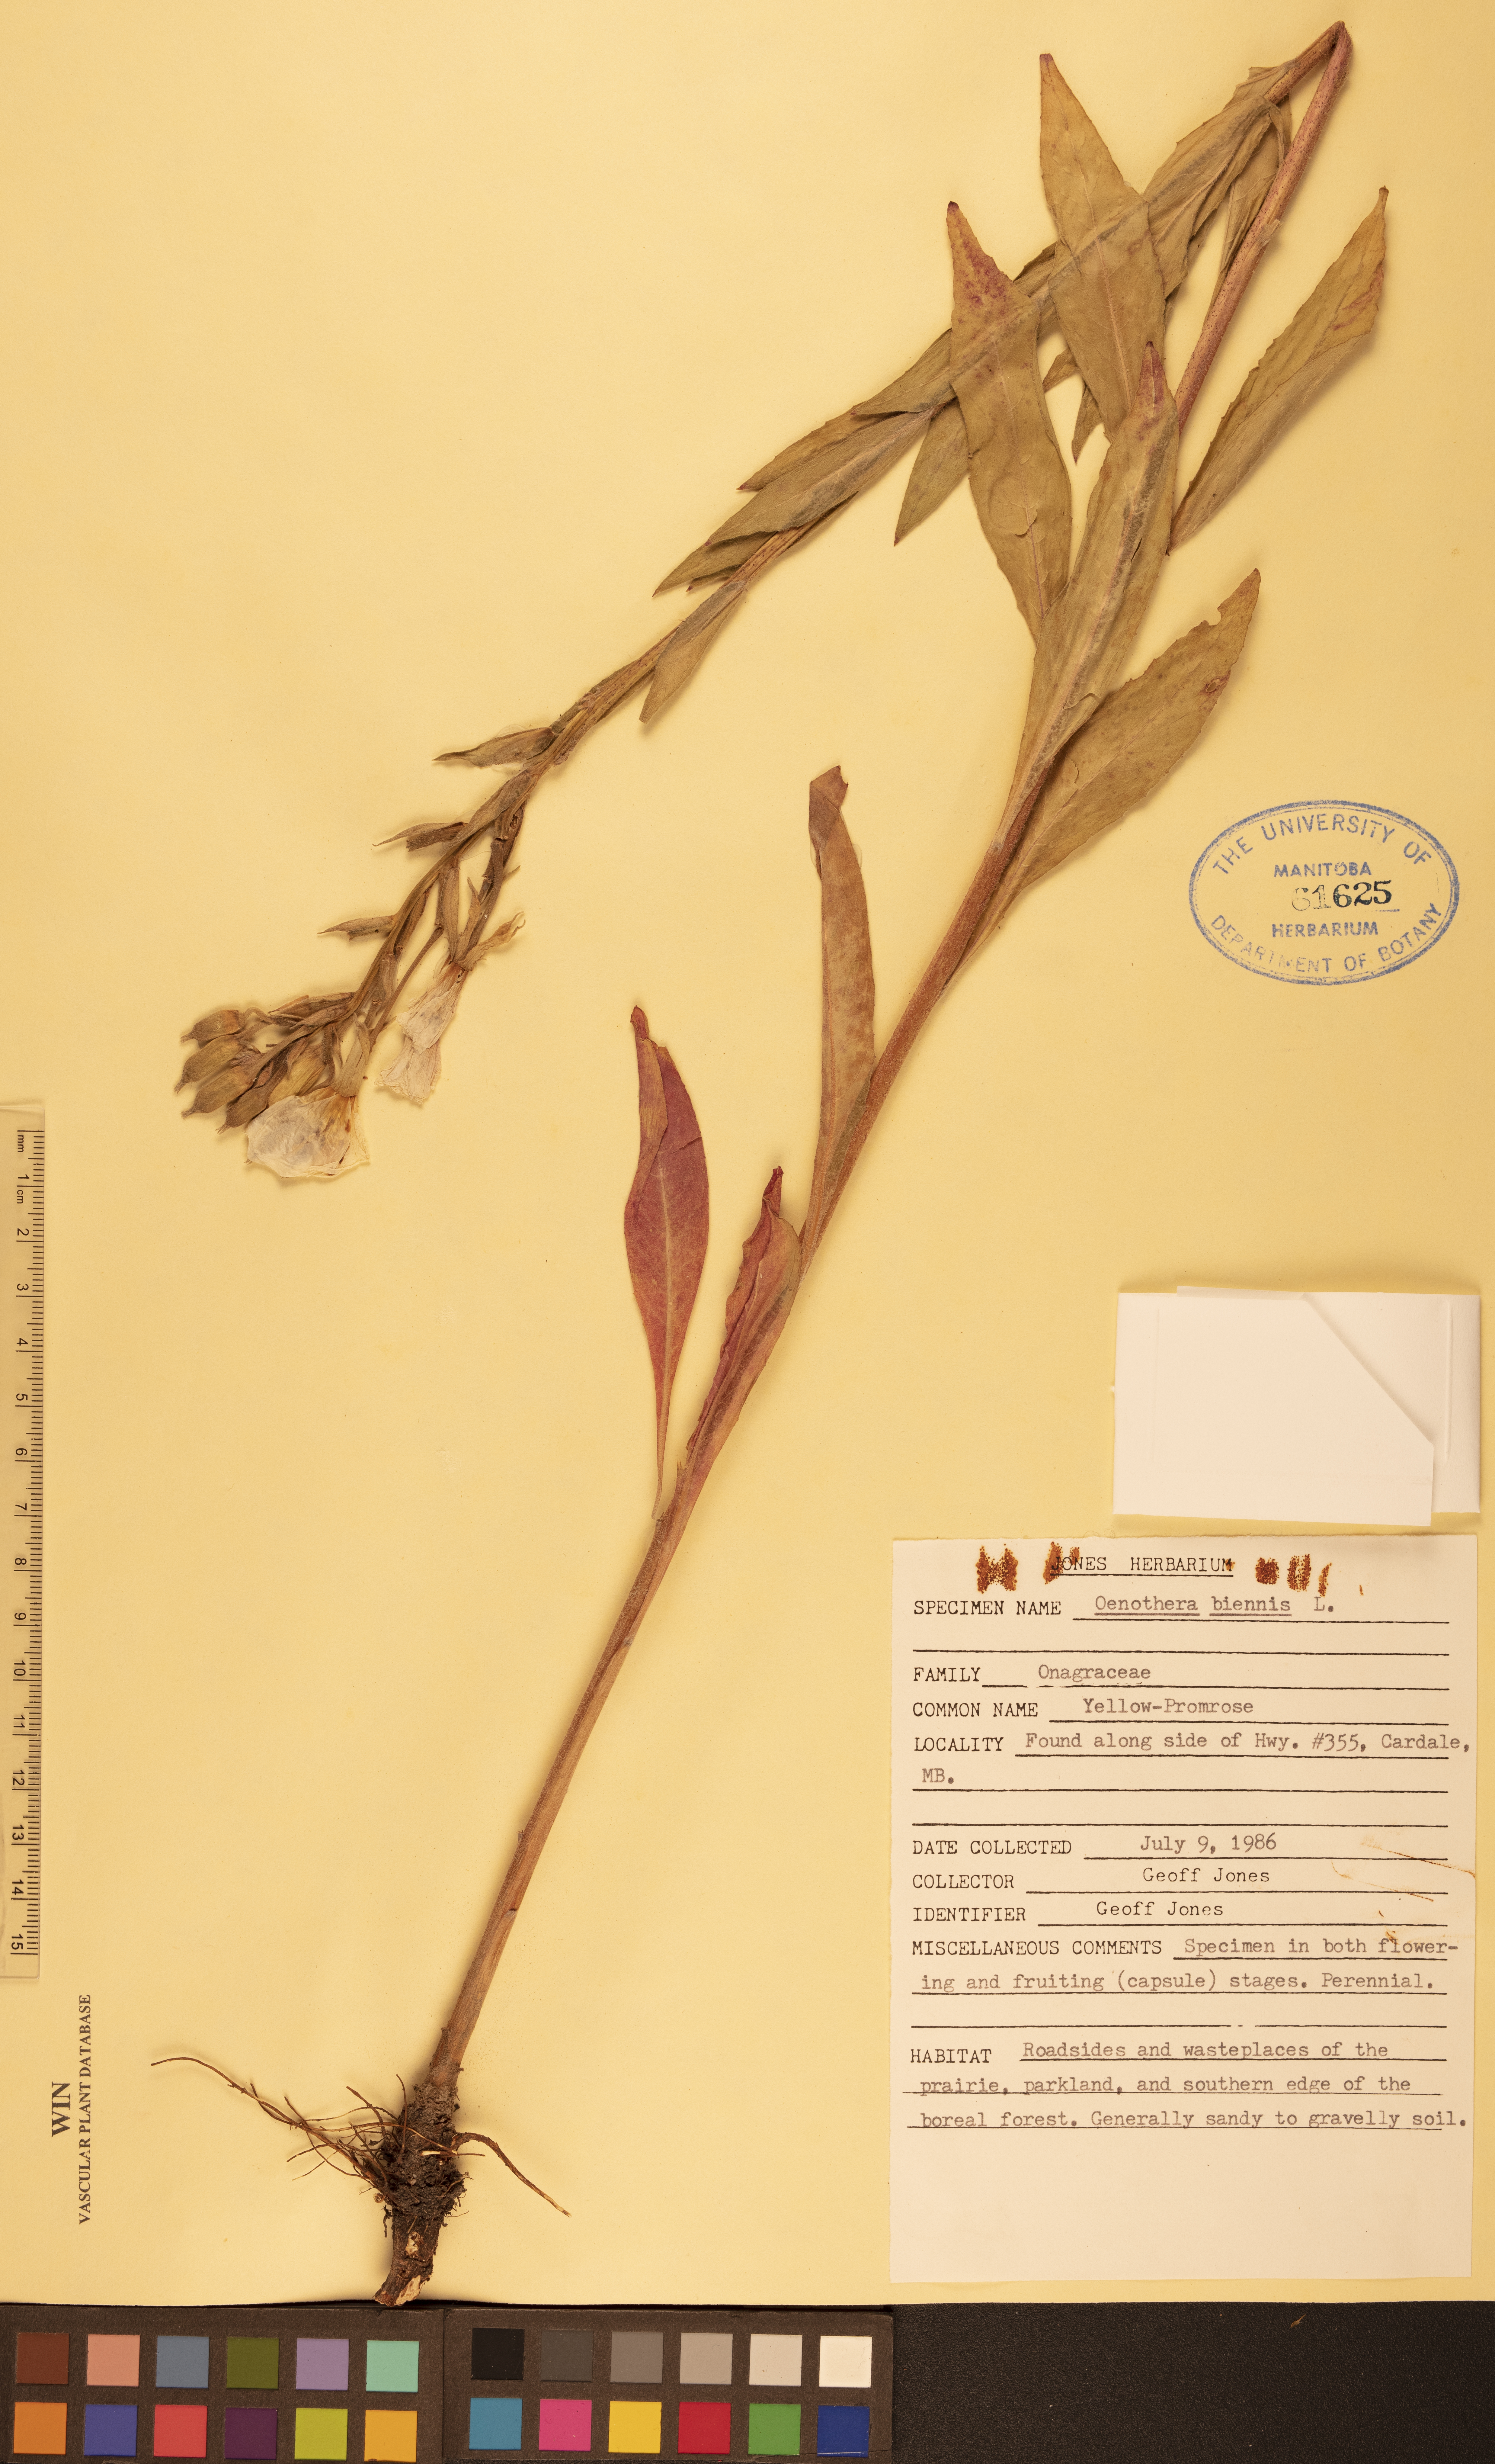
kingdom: Plantae
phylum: Tracheophyta
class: Magnoliopsida
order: Myrtales
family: Onagraceae
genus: Oenothera
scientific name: Oenothera biennis
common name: Common evening-primrose
